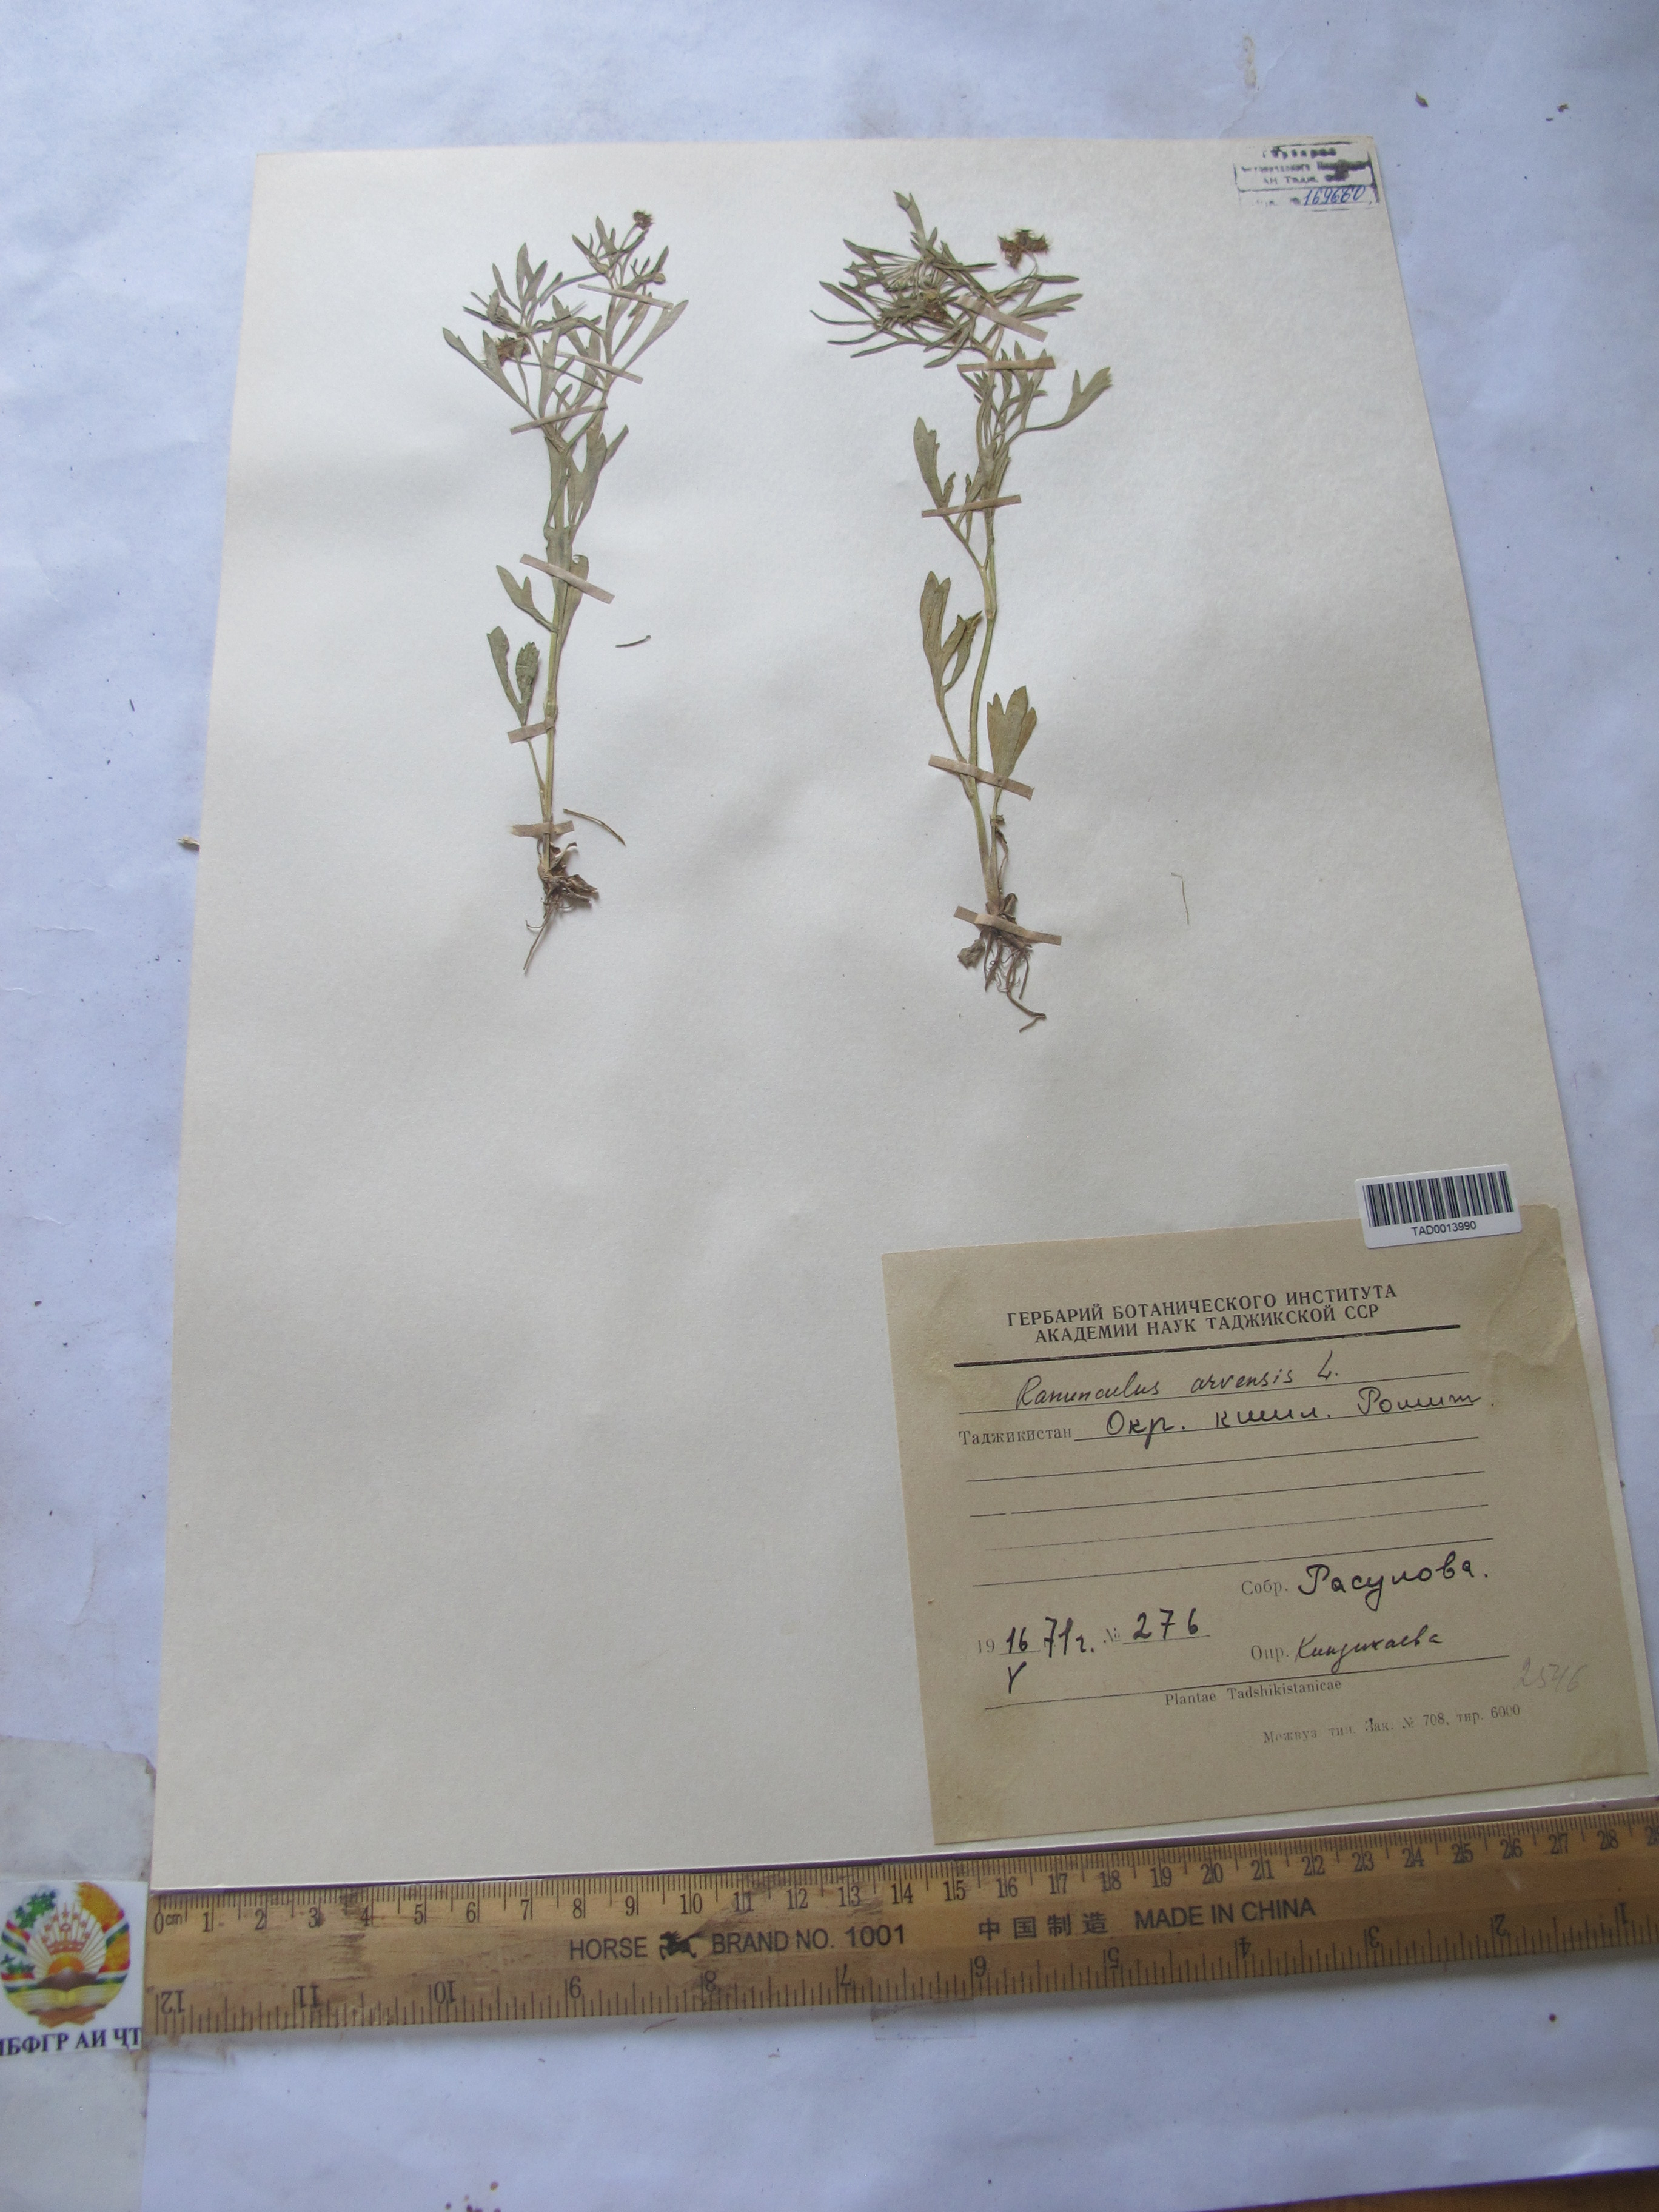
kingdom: Plantae
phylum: Tracheophyta
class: Magnoliopsida
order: Ranunculales
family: Ranunculaceae
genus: Ranunculus
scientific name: Ranunculus arvensis
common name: Corn buttercup
